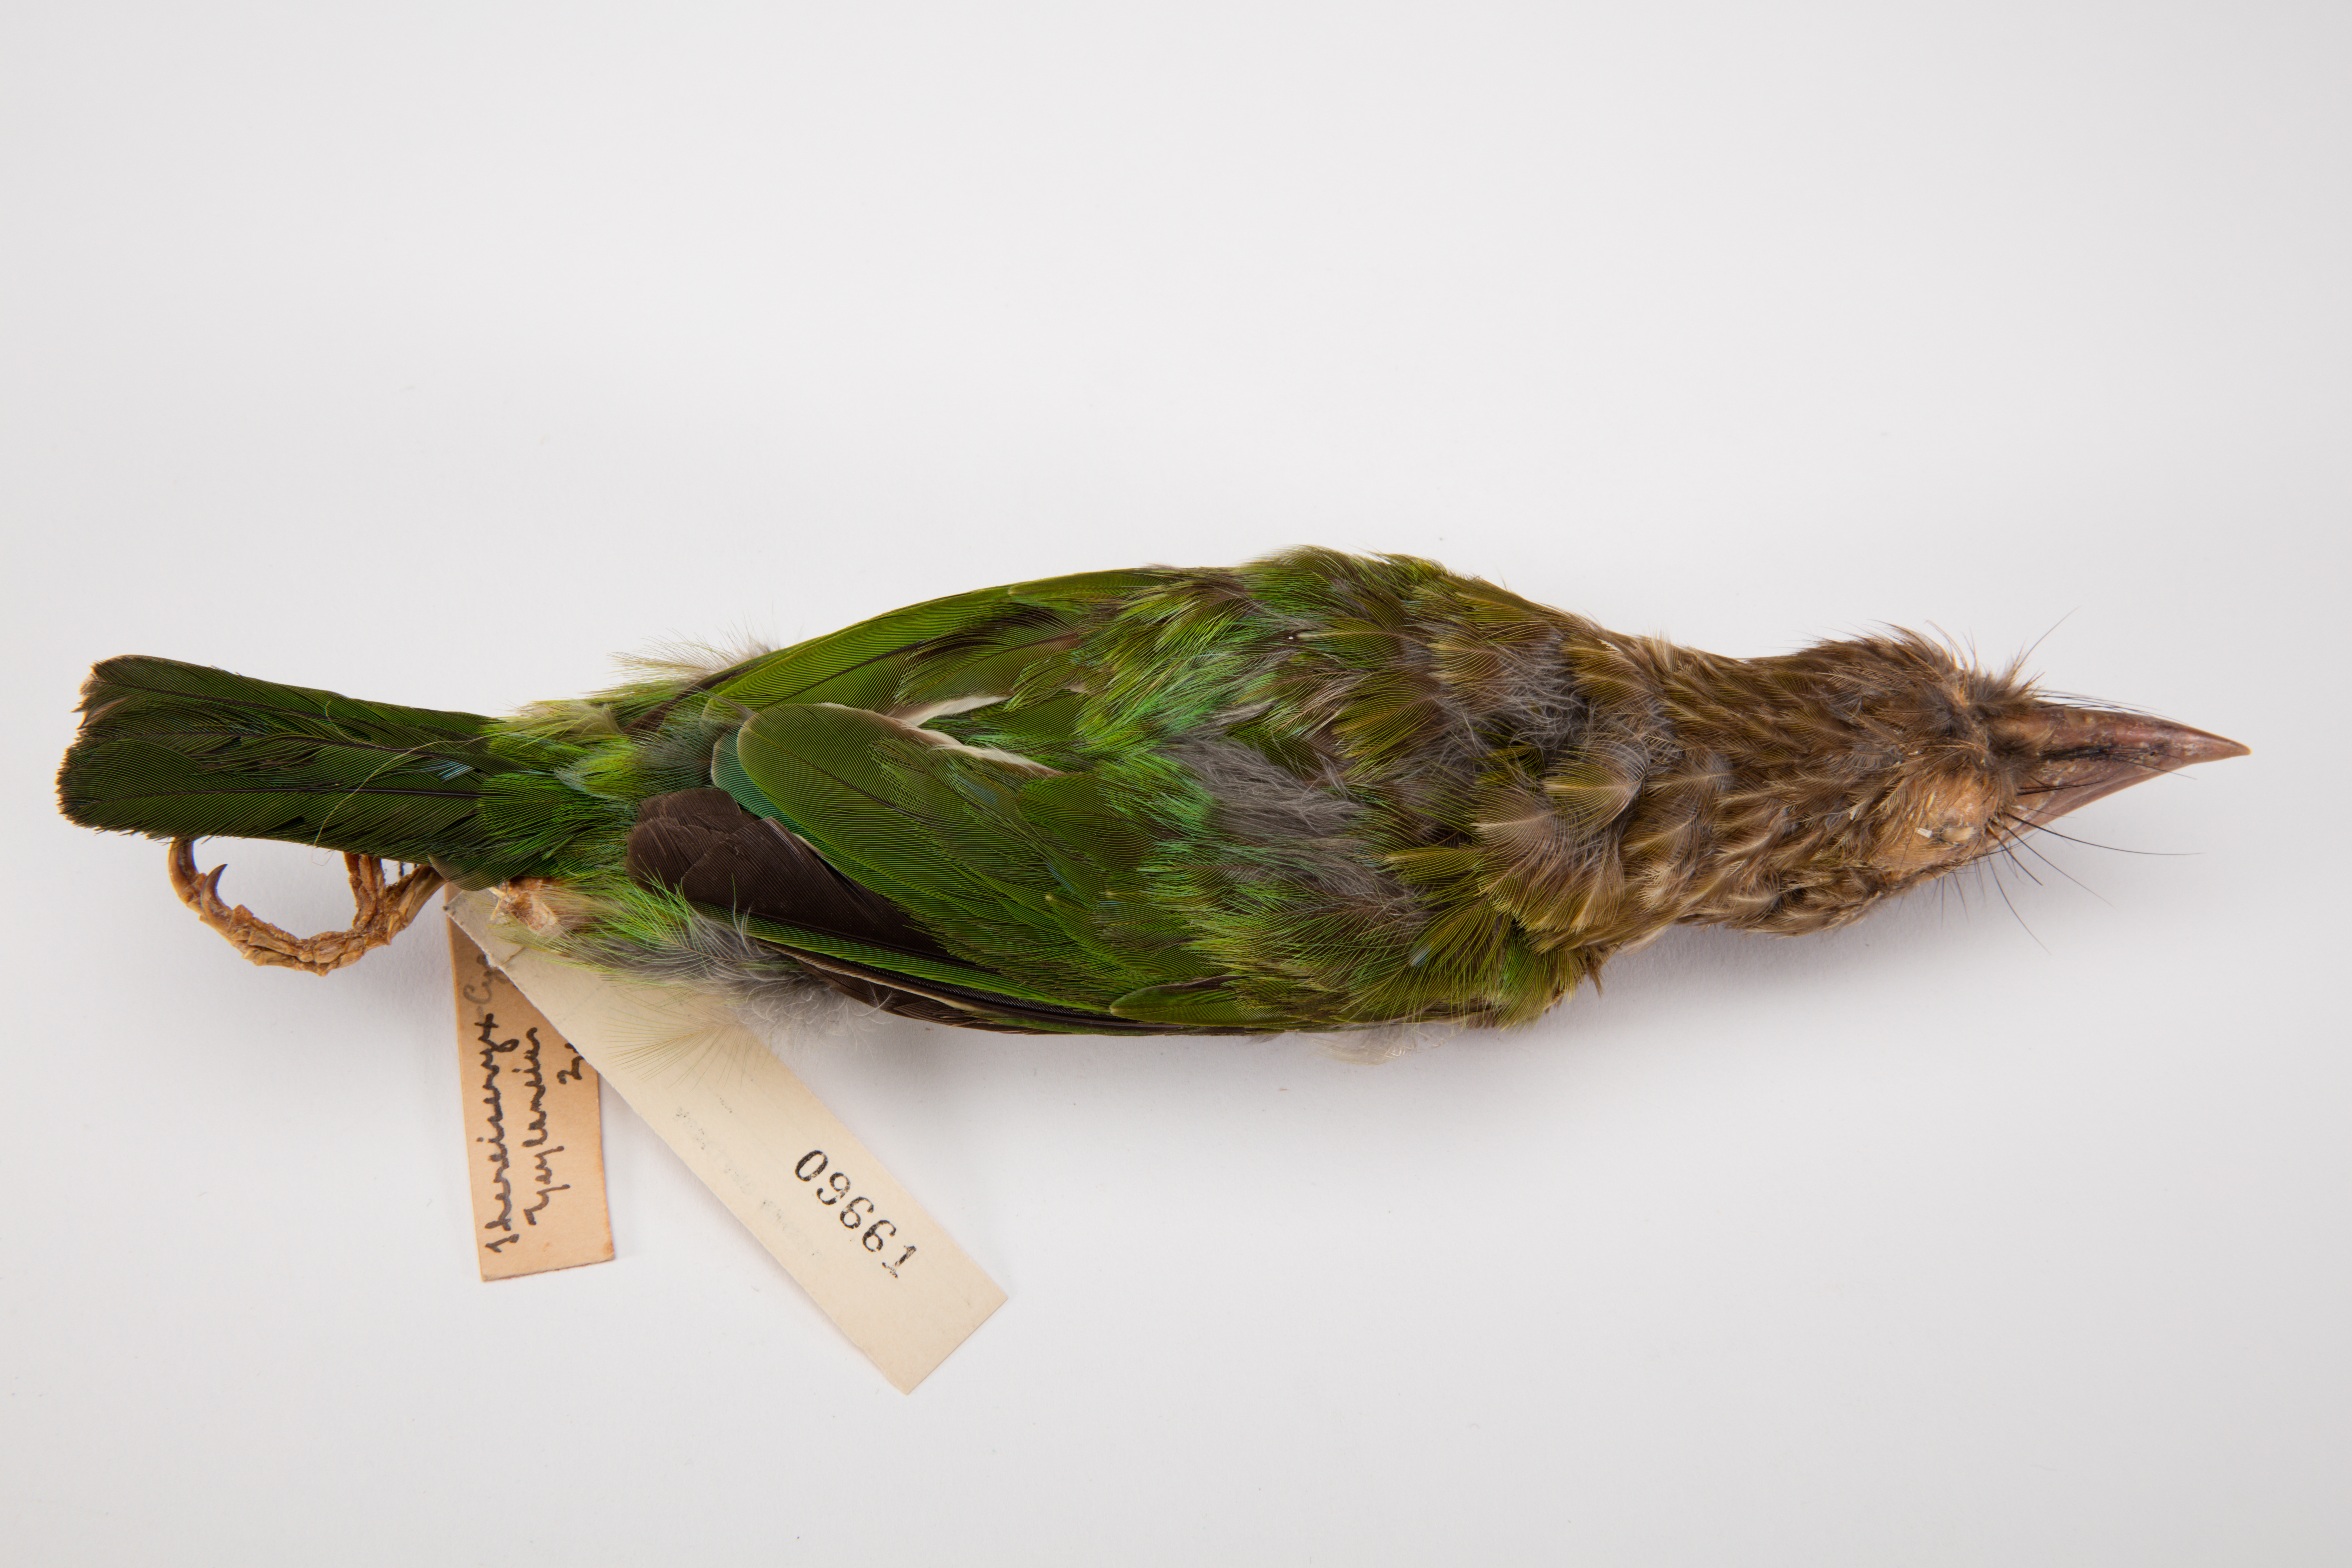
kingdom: Animalia
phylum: Chordata
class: Aves
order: Piciformes
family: Megalaimidae
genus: Psilopogon
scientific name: Psilopogon zeylanicus
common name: Brown-headed barbet
